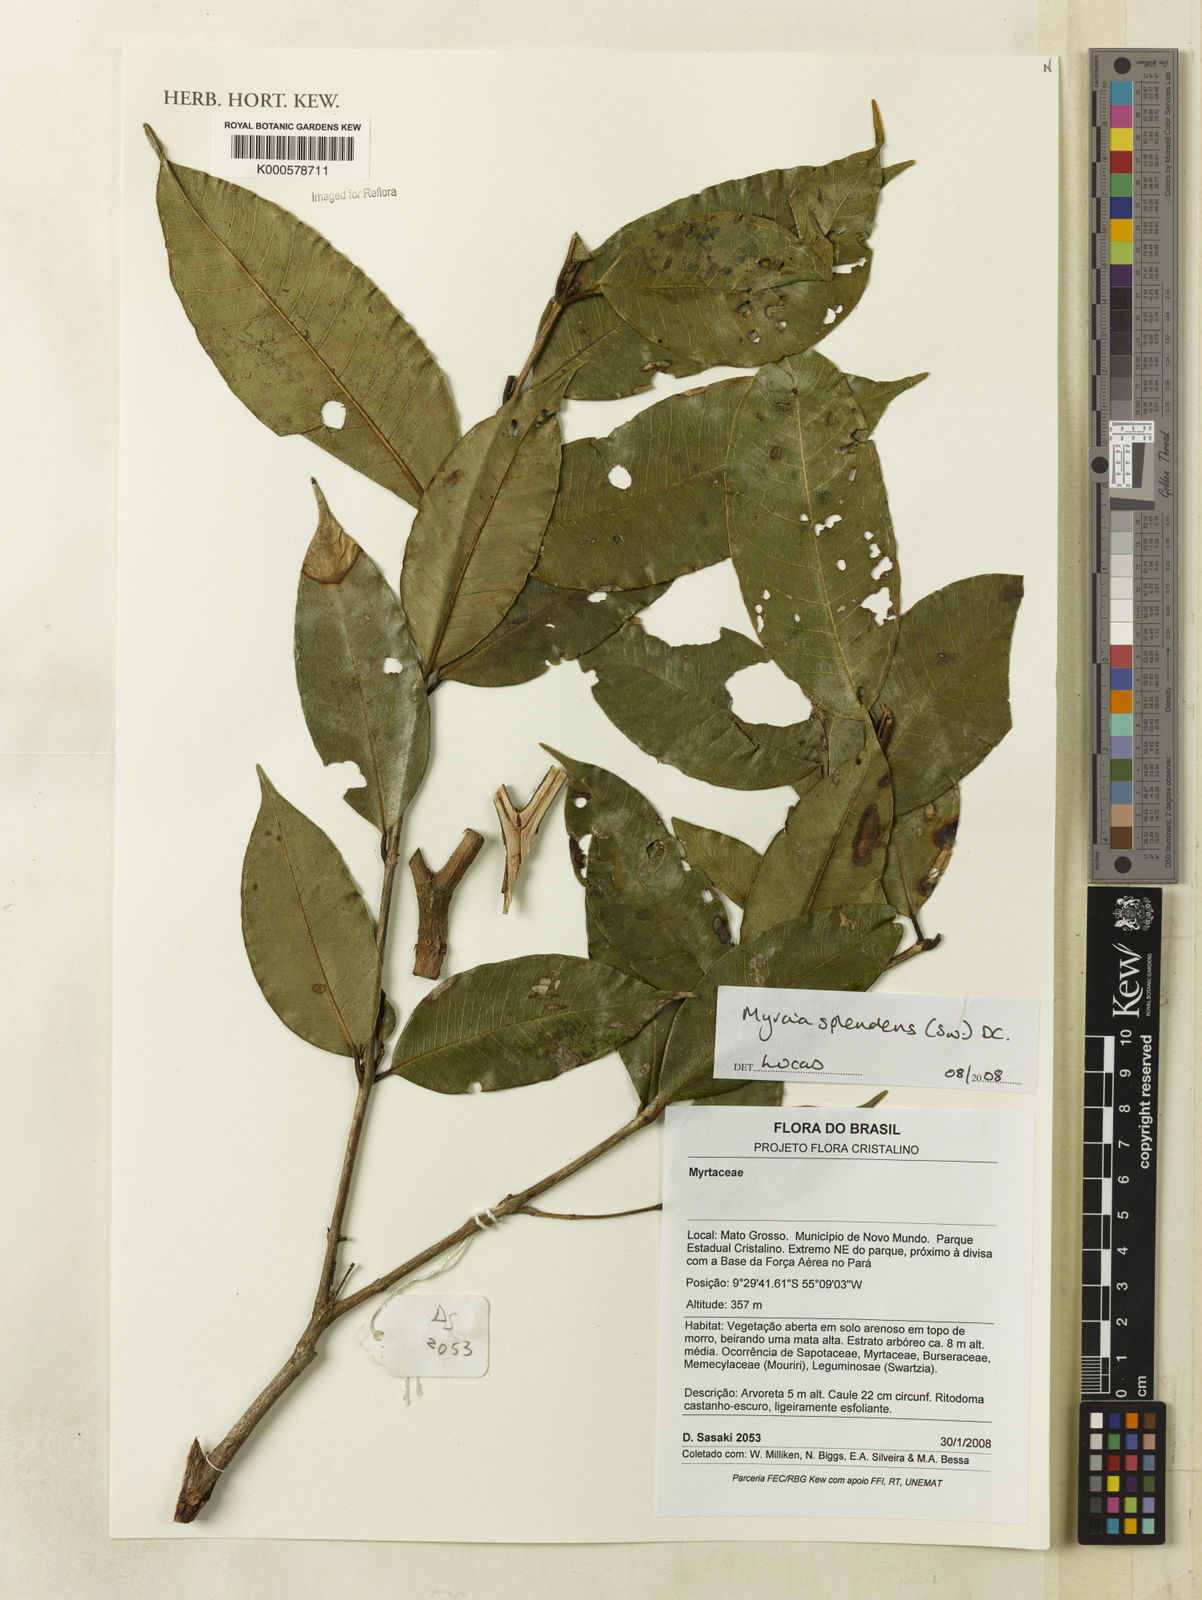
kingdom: Plantae
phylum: Tracheophyta
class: Magnoliopsida
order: Myrtales
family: Myrtaceae
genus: Myrcia
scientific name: Myrcia splendens
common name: Surinam cherry
